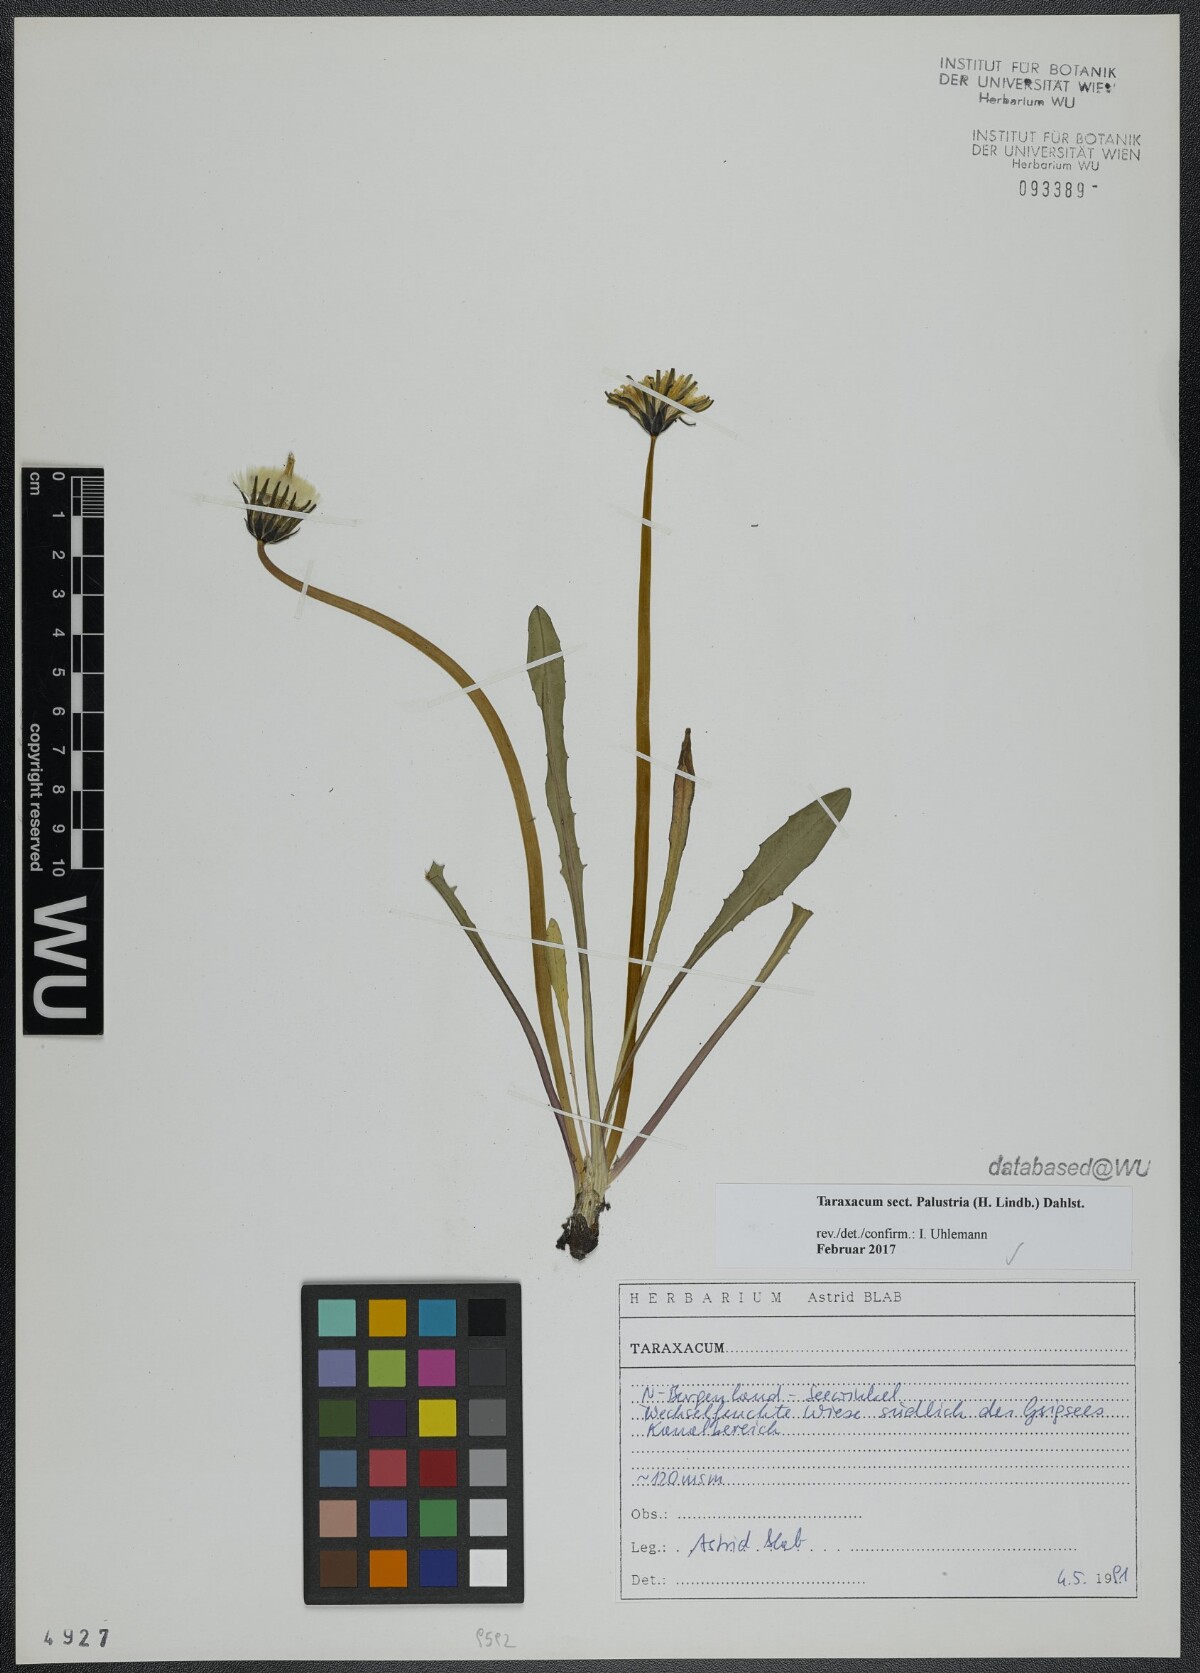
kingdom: Plantae
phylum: Tracheophyta
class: Magnoliopsida
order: Asterales
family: Asteraceae
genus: Taraxacum
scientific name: Taraxacum
